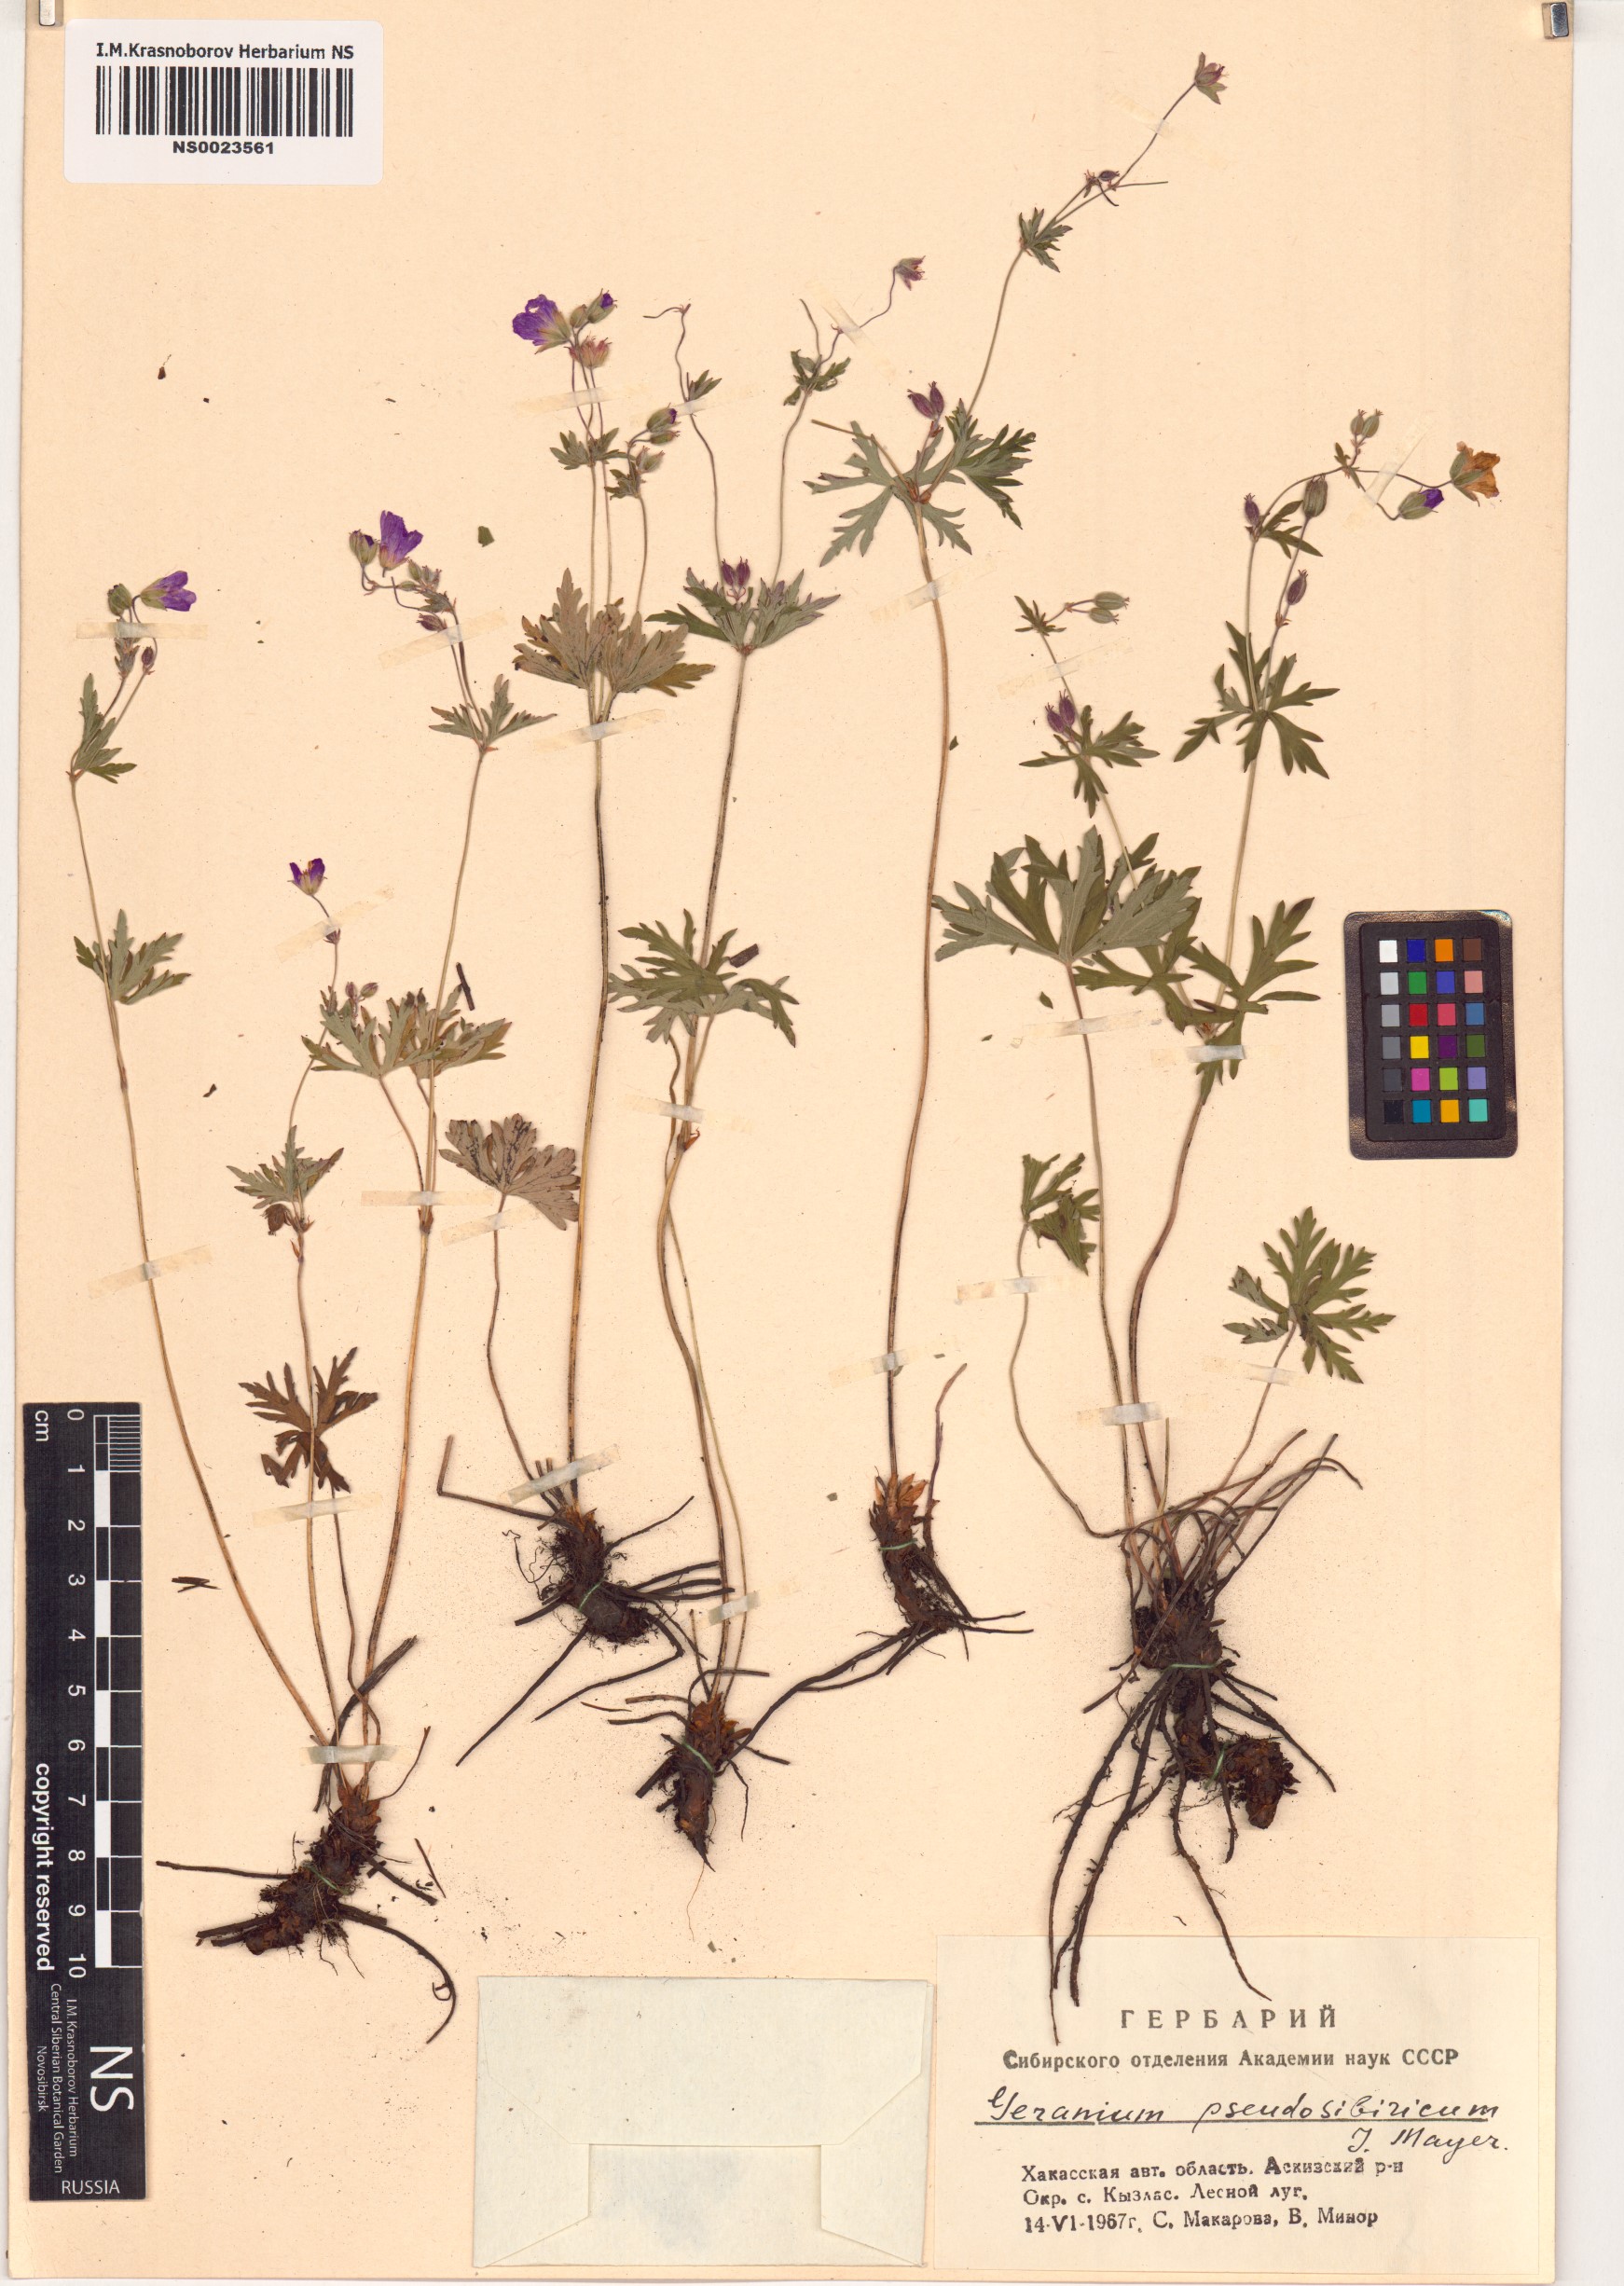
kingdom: Plantae
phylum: Tracheophyta
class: Magnoliopsida
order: Geraniales
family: Geraniaceae
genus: Geranium
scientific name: Geranium pseudosibiricum
